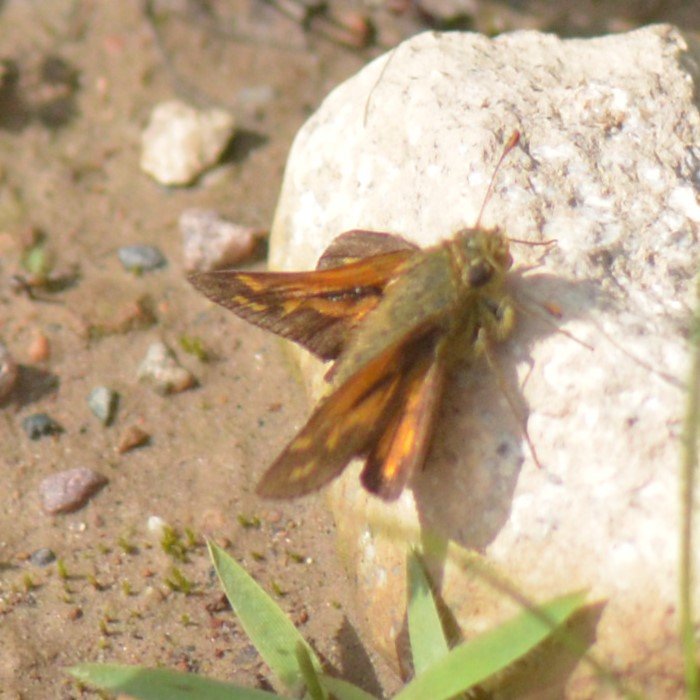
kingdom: Animalia
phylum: Arthropoda
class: Insecta
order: Lepidoptera
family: Hesperiidae
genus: Hesperia
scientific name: Hesperia comma
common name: Common Branded Skipper
